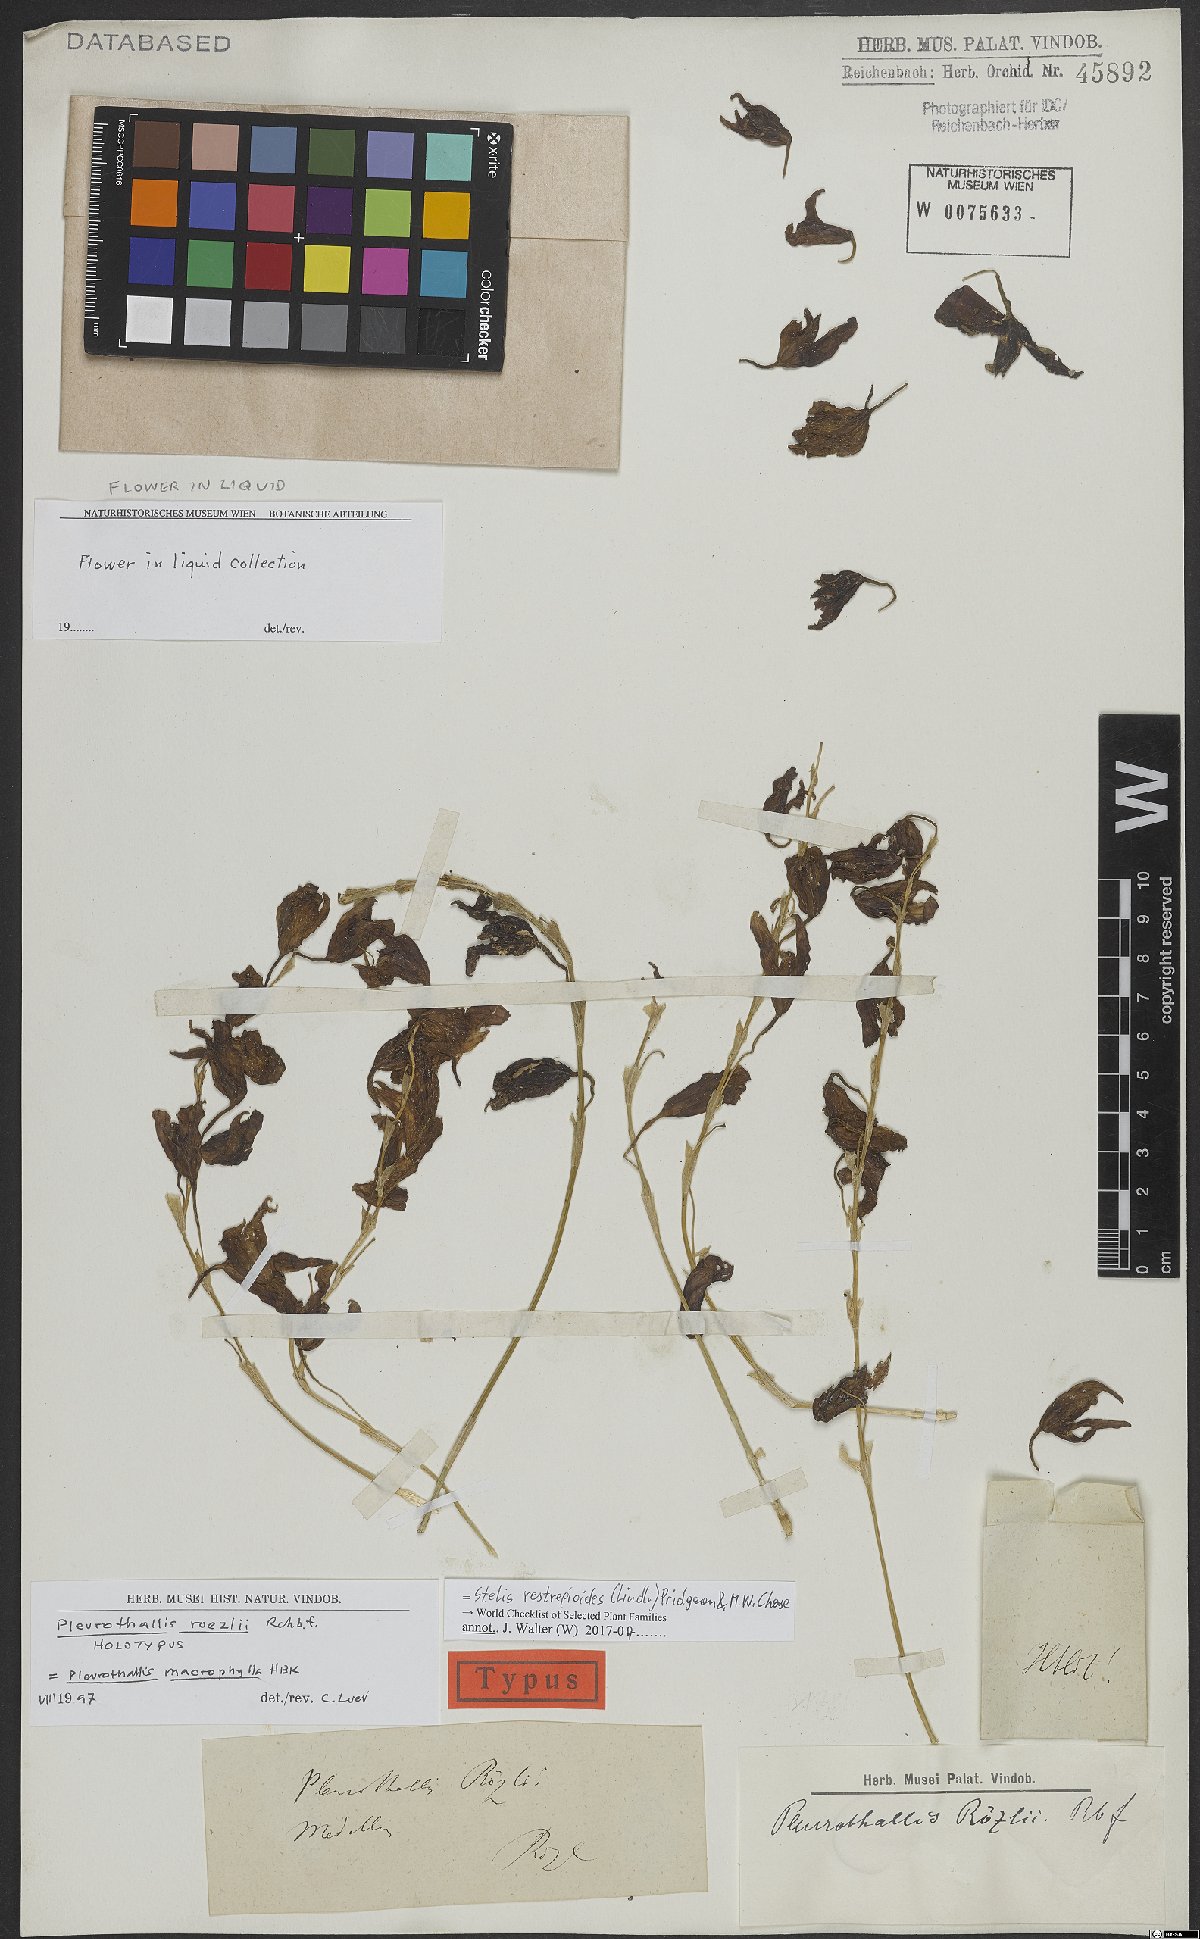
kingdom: Plantae
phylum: Tracheophyta
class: Liliopsida
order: Asparagales
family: Orchidaceae
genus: Pleurothallis
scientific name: Pleurothallis restrepioides
